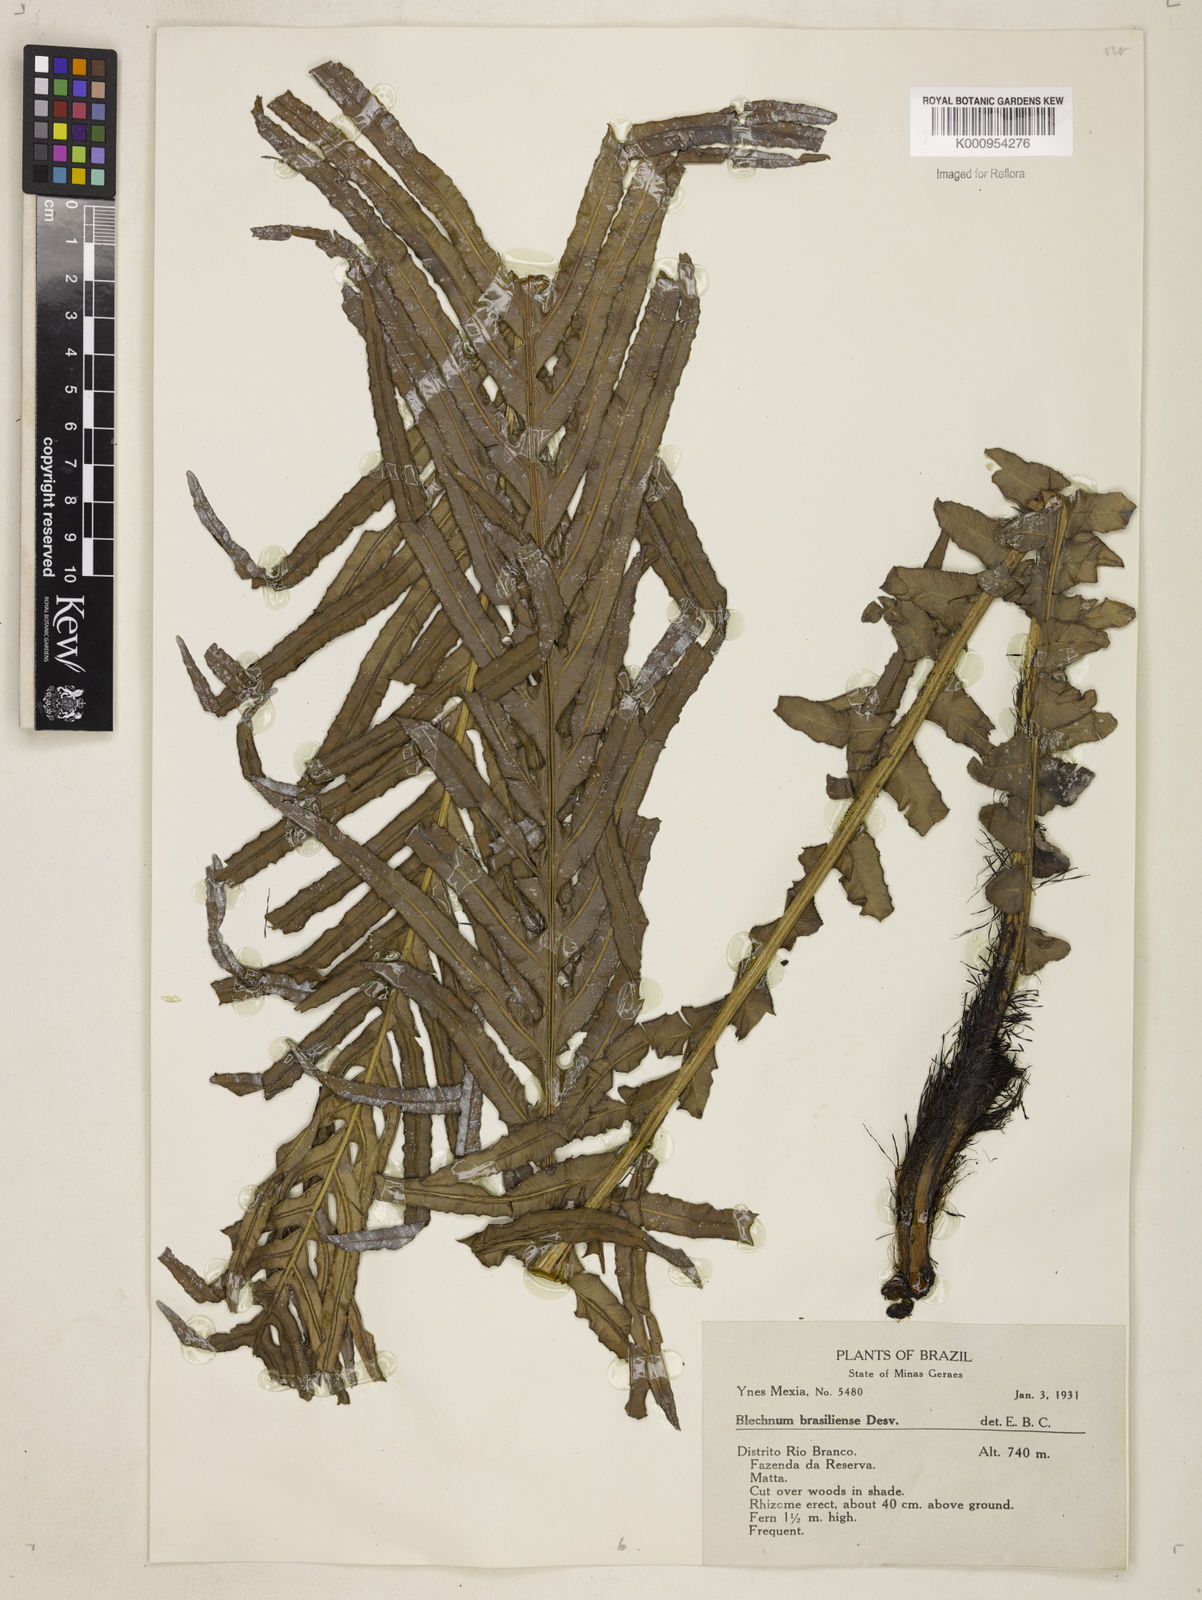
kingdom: Plantae
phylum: Tracheophyta
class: Polypodiopsida
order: Polypodiales
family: Blechnaceae
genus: Neoblechnum
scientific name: Neoblechnum brasiliense
